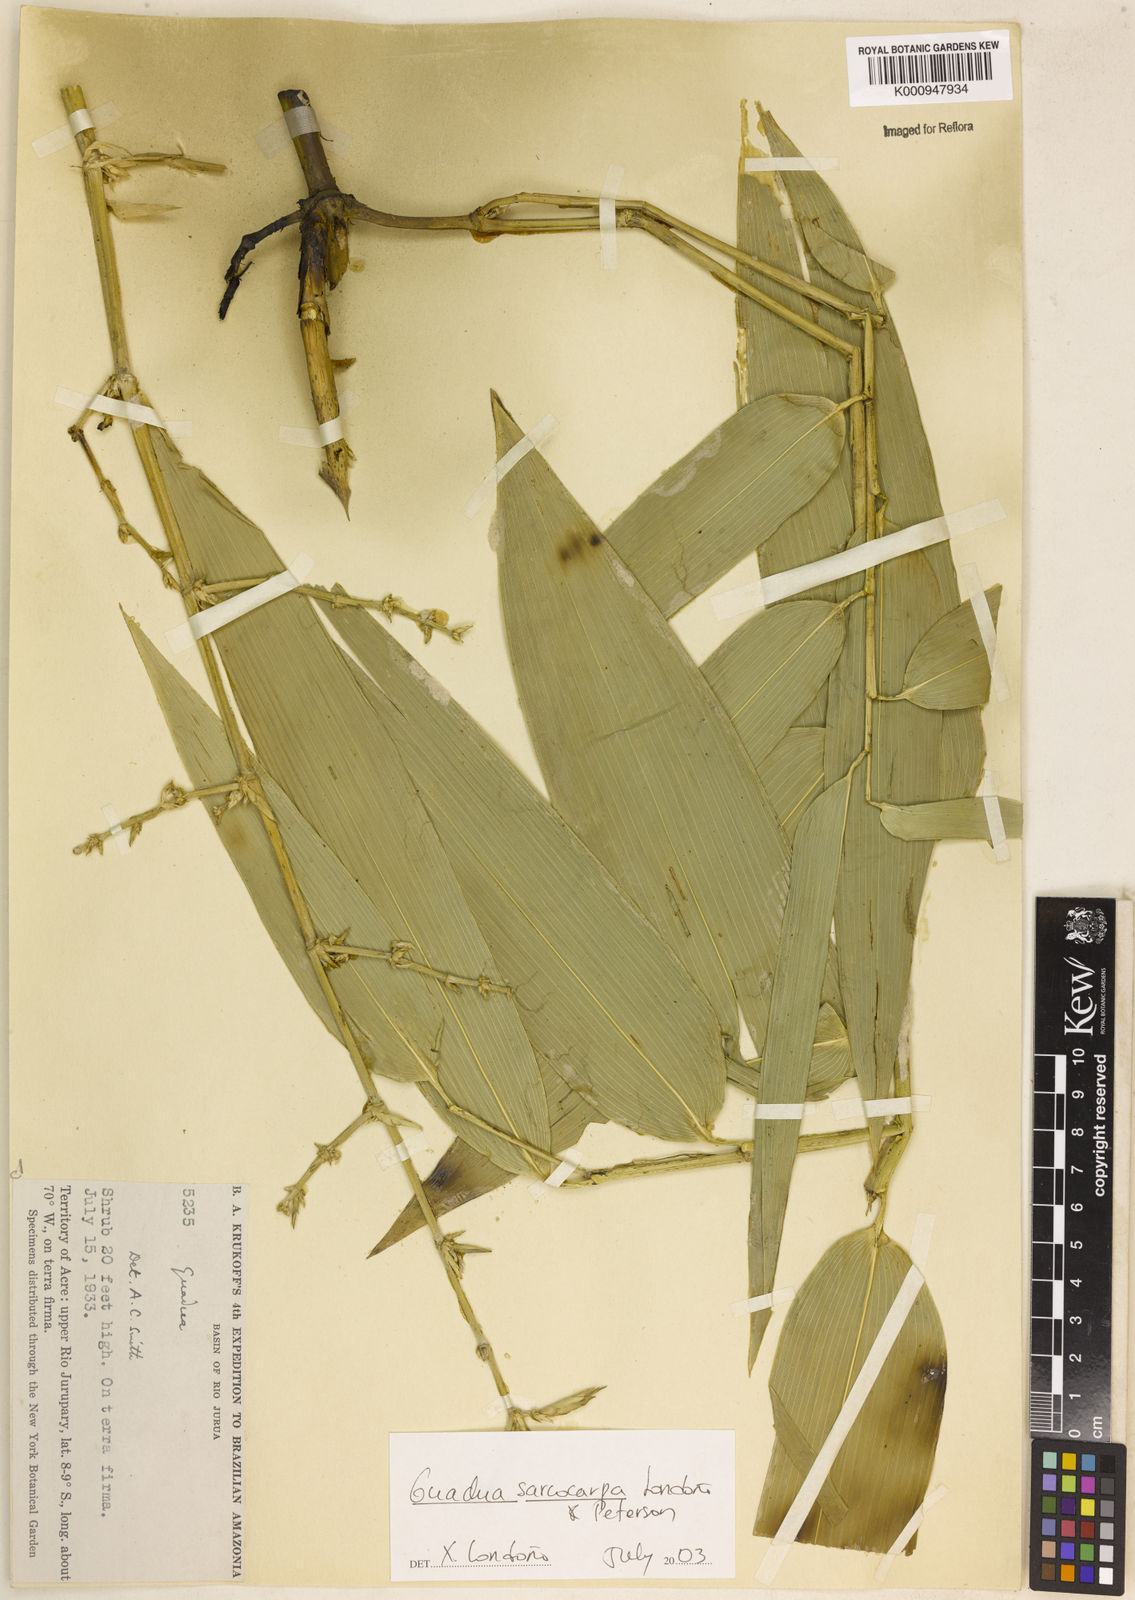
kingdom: Plantae
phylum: Tracheophyta
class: Liliopsida
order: Poales
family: Poaceae
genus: Guadua
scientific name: Guadua
